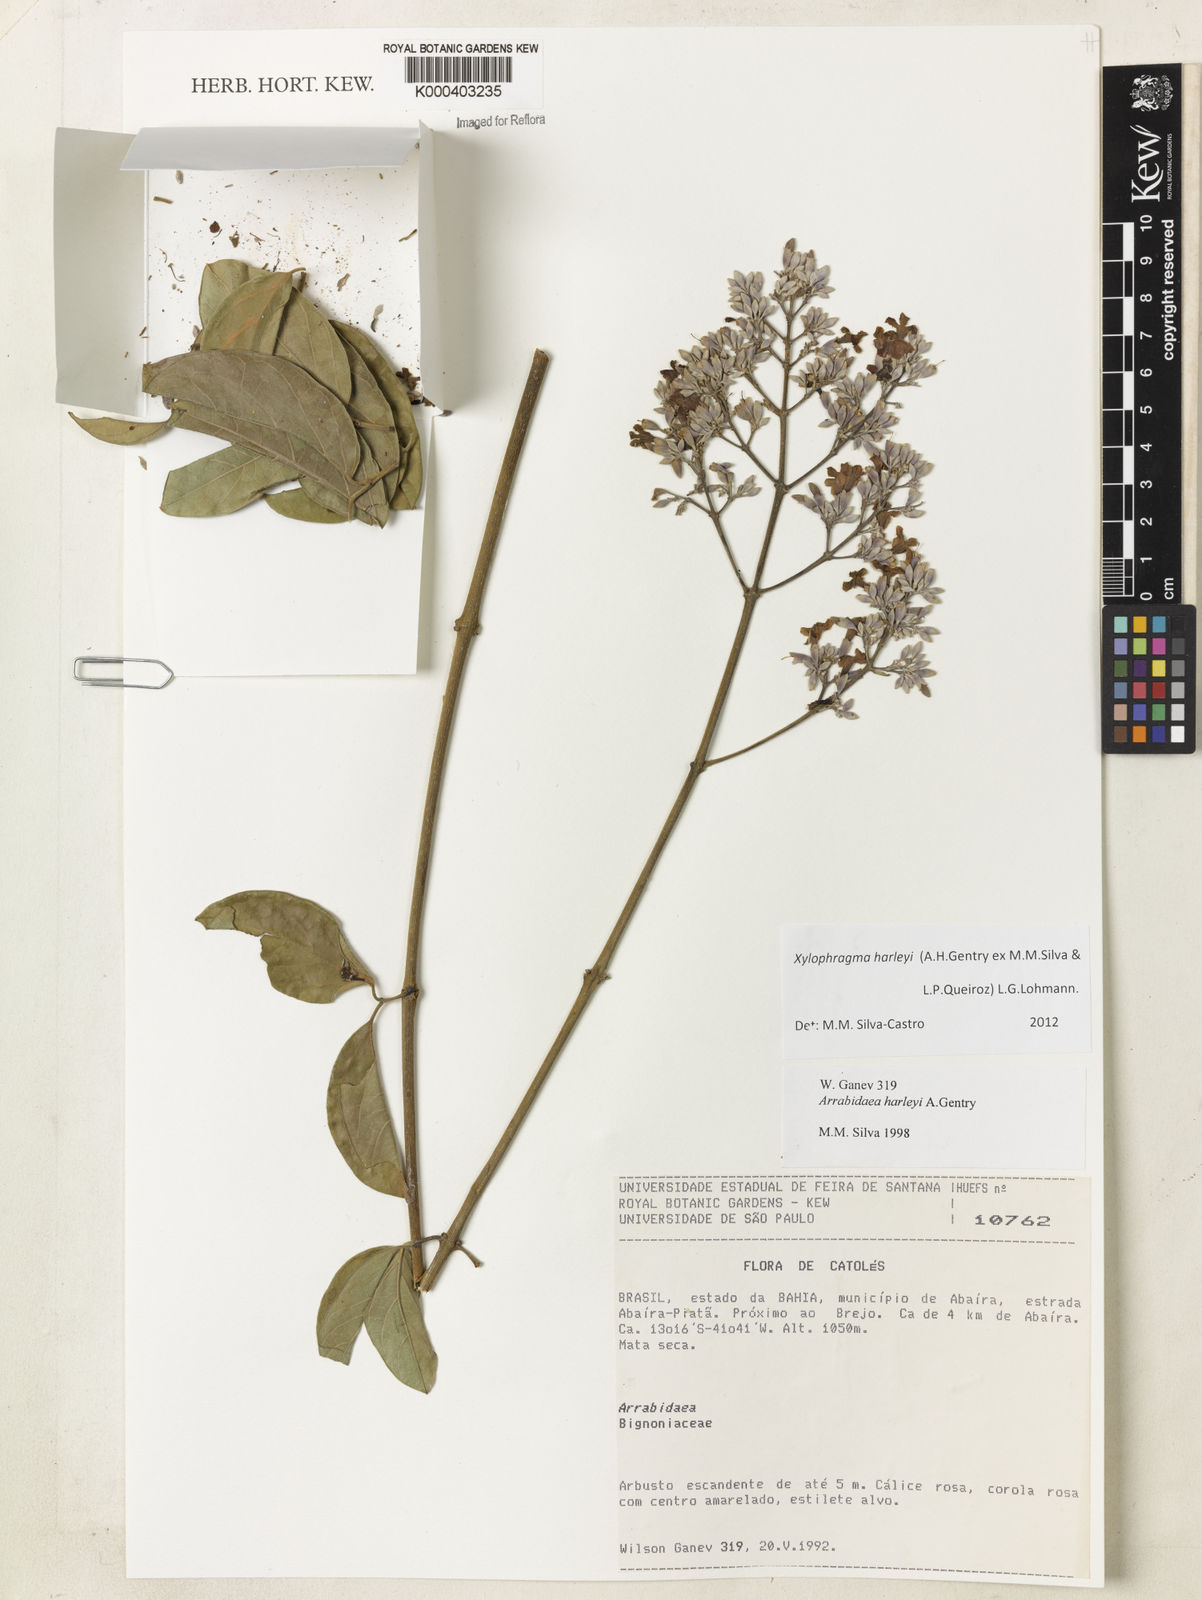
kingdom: Plantae
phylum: Tracheophyta
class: Magnoliopsida
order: Lamiales
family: Bignoniaceae
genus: Xylophragma
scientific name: Xylophragma harleyi
